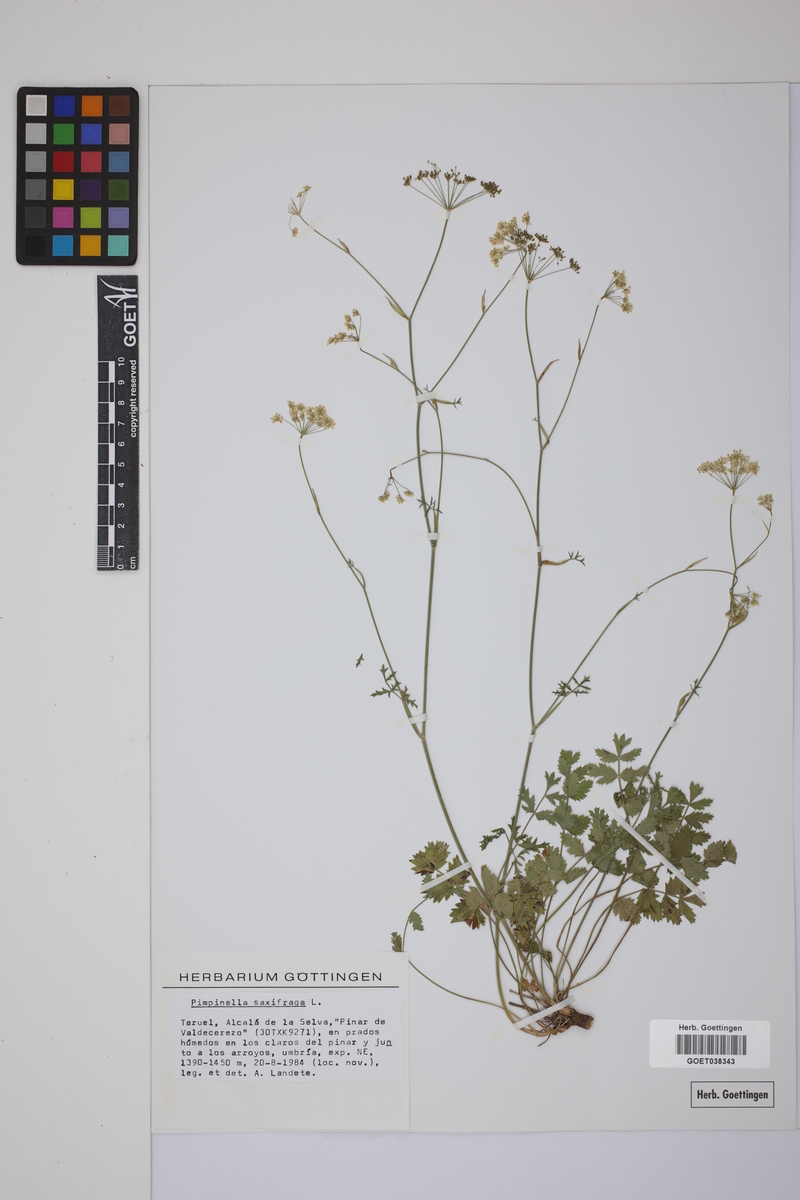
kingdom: Plantae
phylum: Tracheophyta
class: Magnoliopsida
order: Apiales
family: Apiaceae
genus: Pimpinella
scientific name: Pimpinella saxifraga
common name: Burnet-saxifrage
